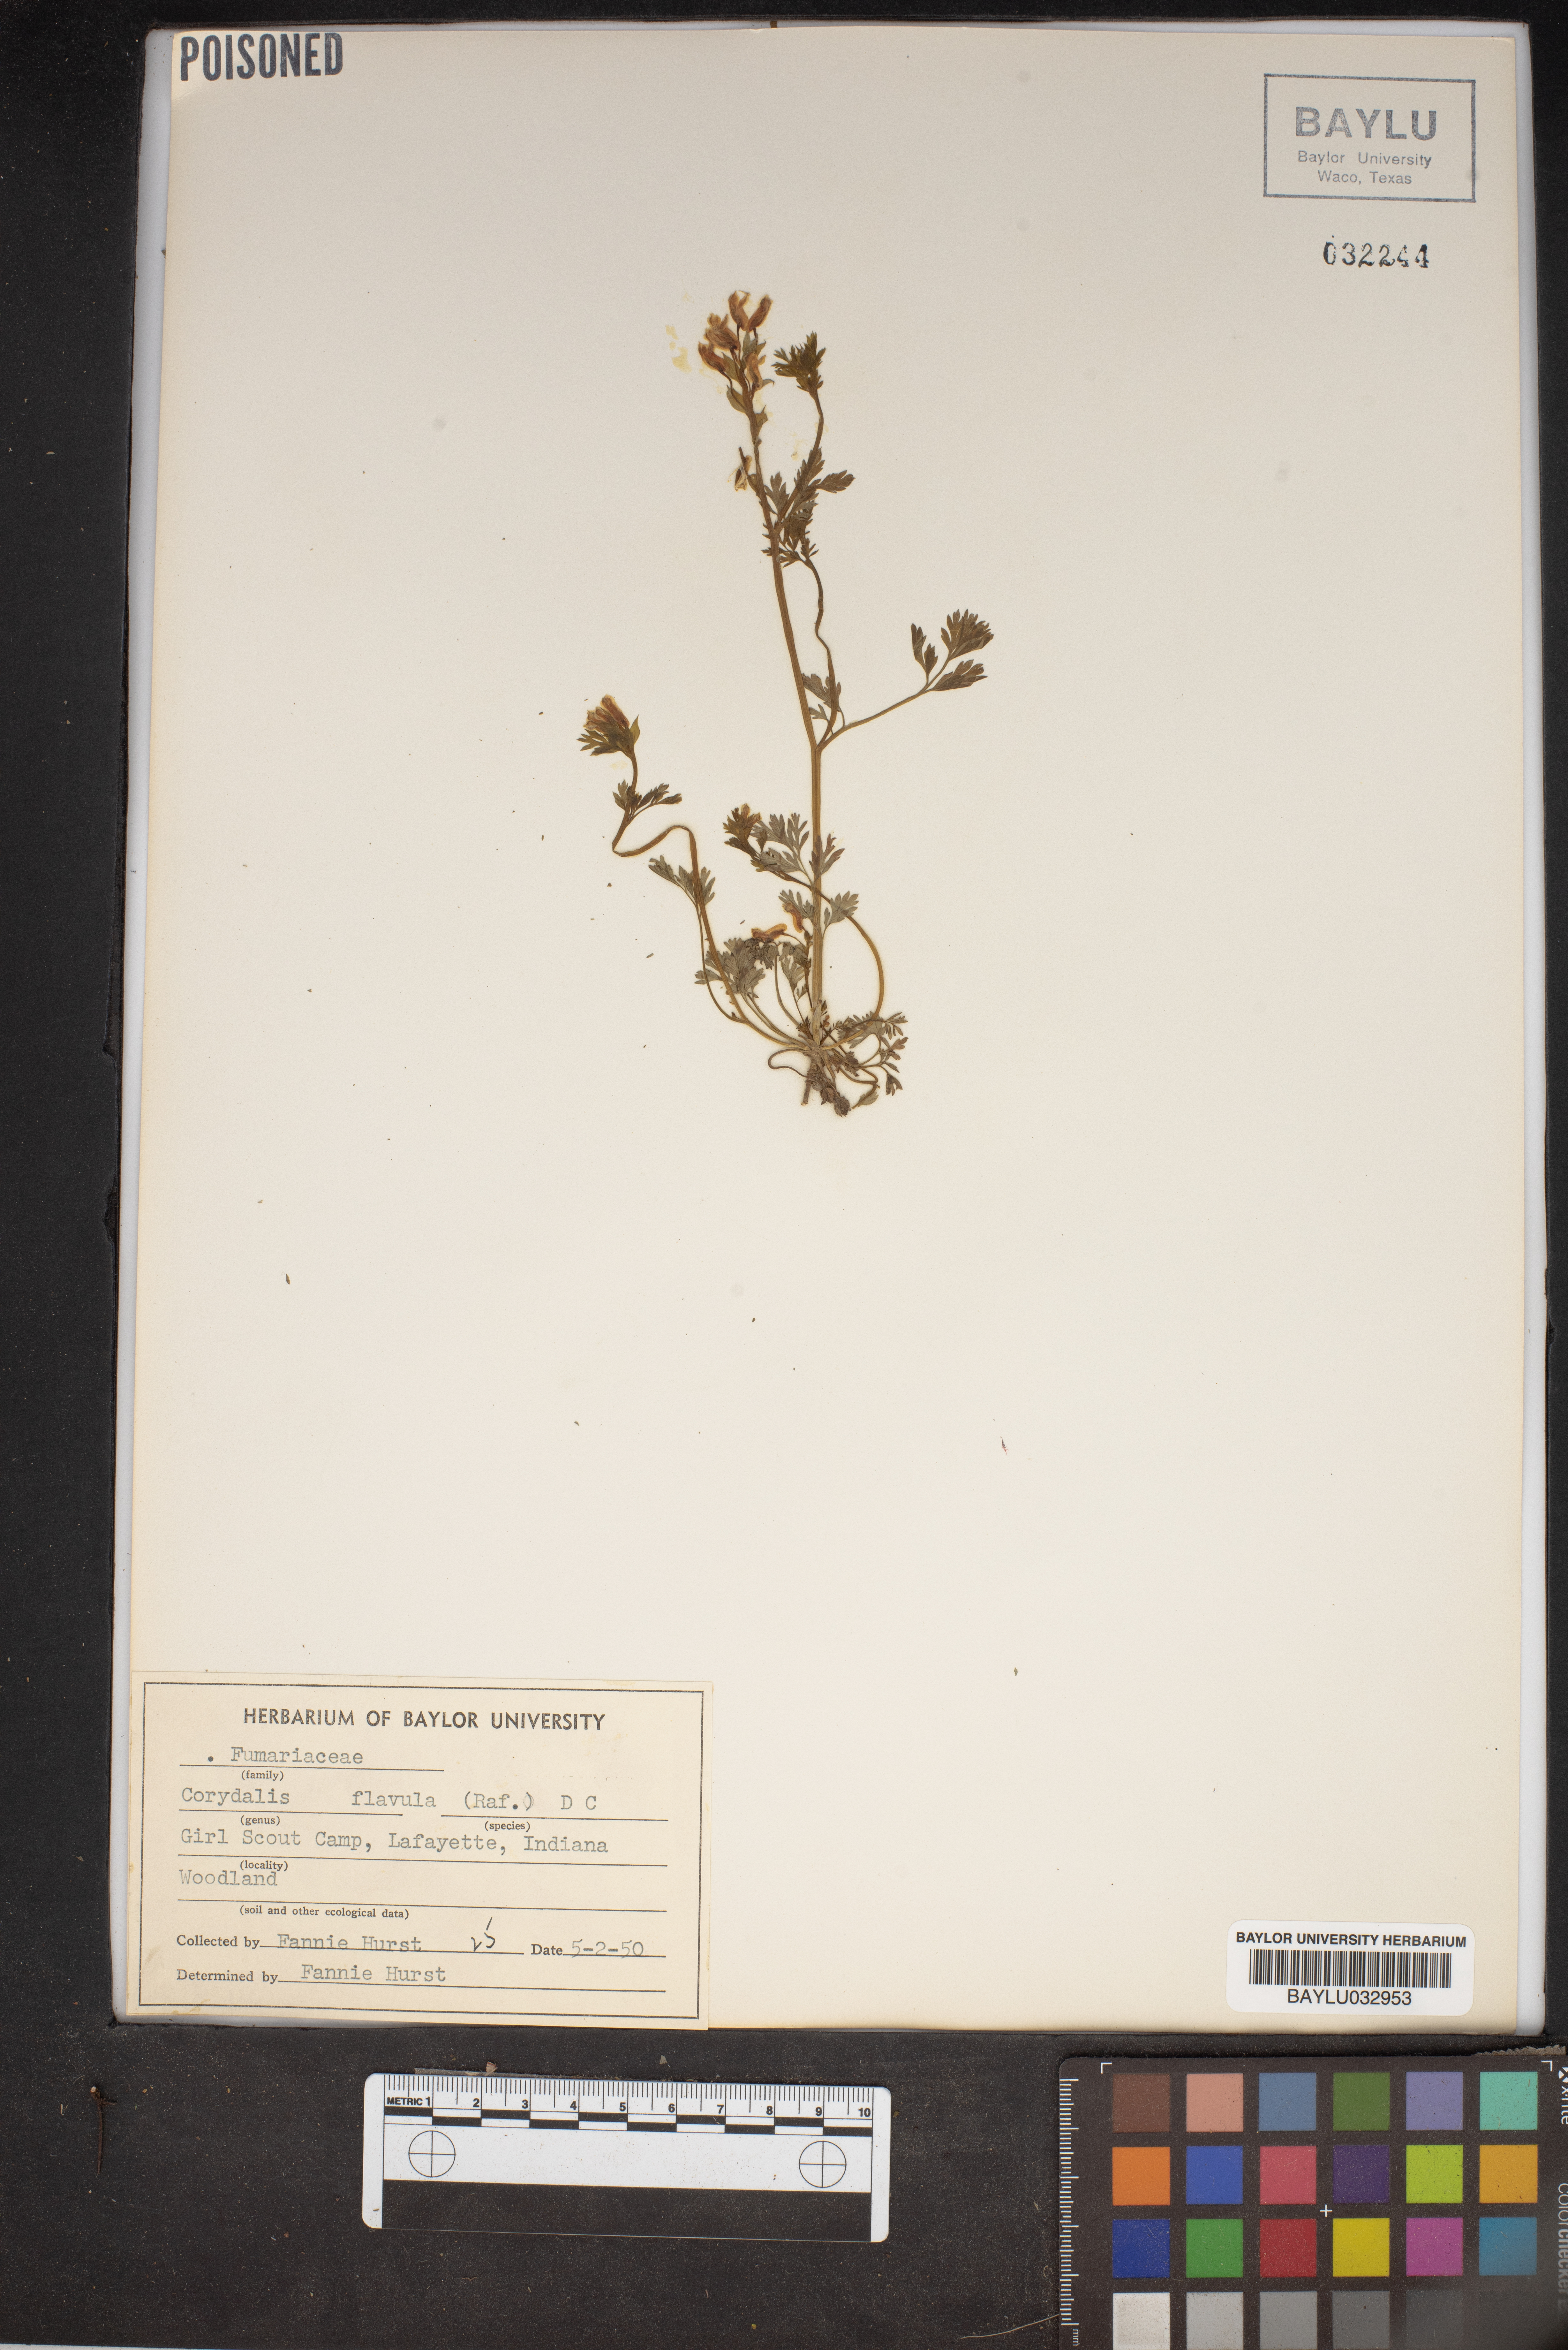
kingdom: Plantae
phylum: Tracheophyta
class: Magnoliopsida
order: Ranunculales
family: Papaveraceae
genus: Corydalis
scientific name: Corydalis flavula
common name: Yellow corydalis
